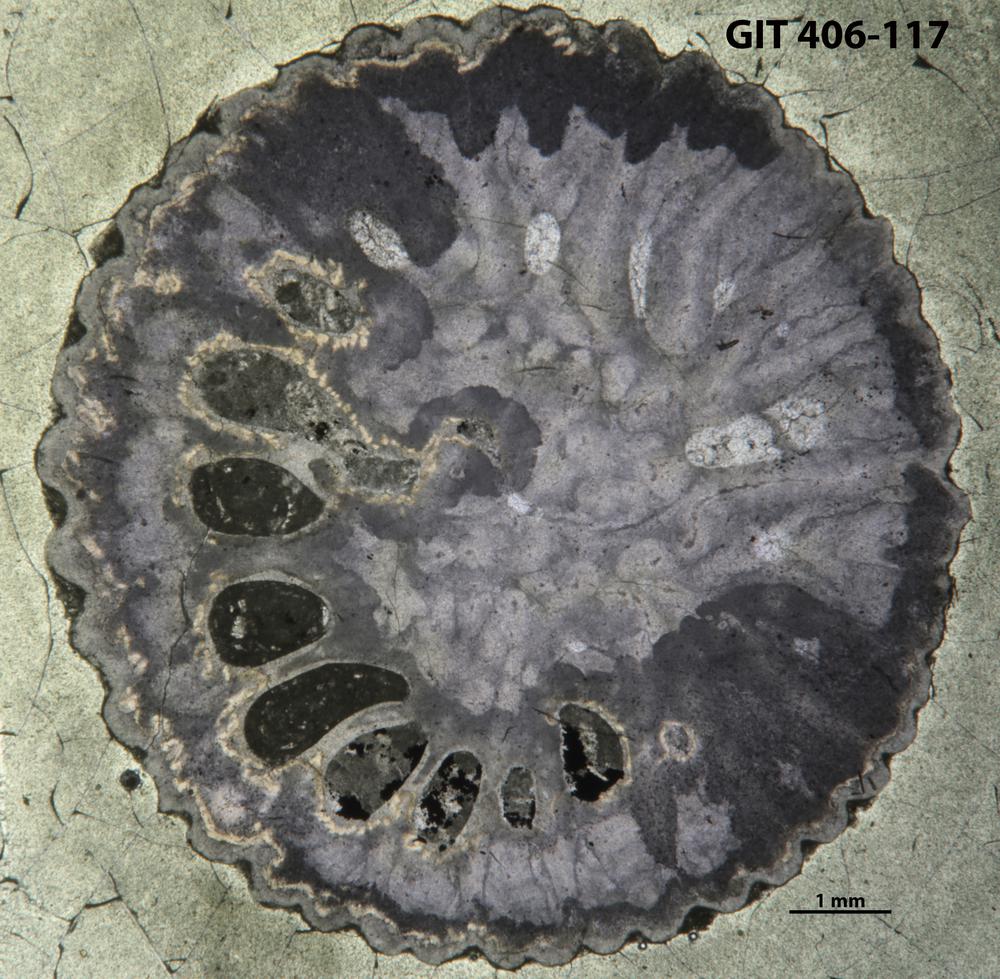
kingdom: Animalia
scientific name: Animalia
